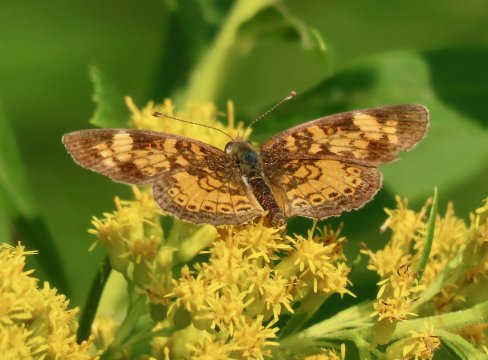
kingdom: Animalia
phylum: Arthropoda
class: Insecta
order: Lepidoptera
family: Nymphalidae
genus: Phyciodes
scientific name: Phyciodes tharos
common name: Pearl Crescent
